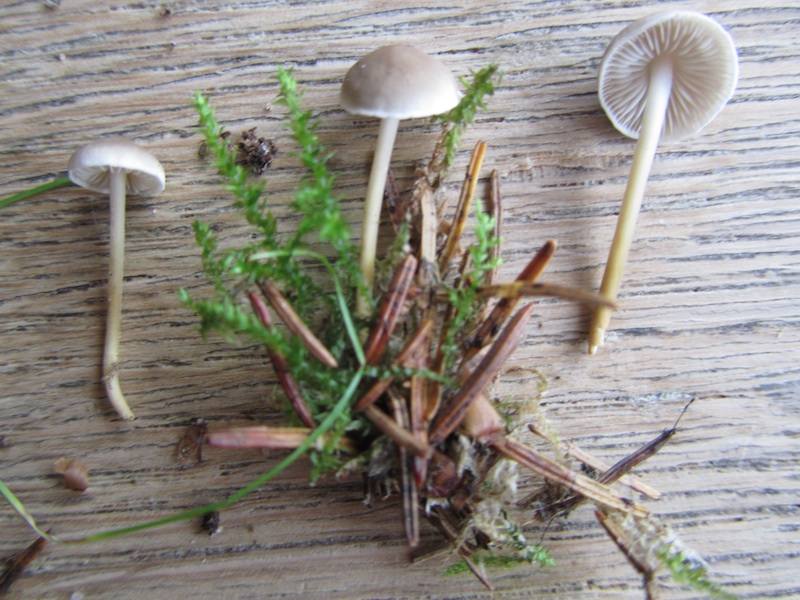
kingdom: Fungi
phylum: Basidiomycota
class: Agaricomycetes
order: Agaricales
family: Physalacriaceae
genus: Strobilurus
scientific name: Strobilurus esculentus
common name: gran-koglehat
